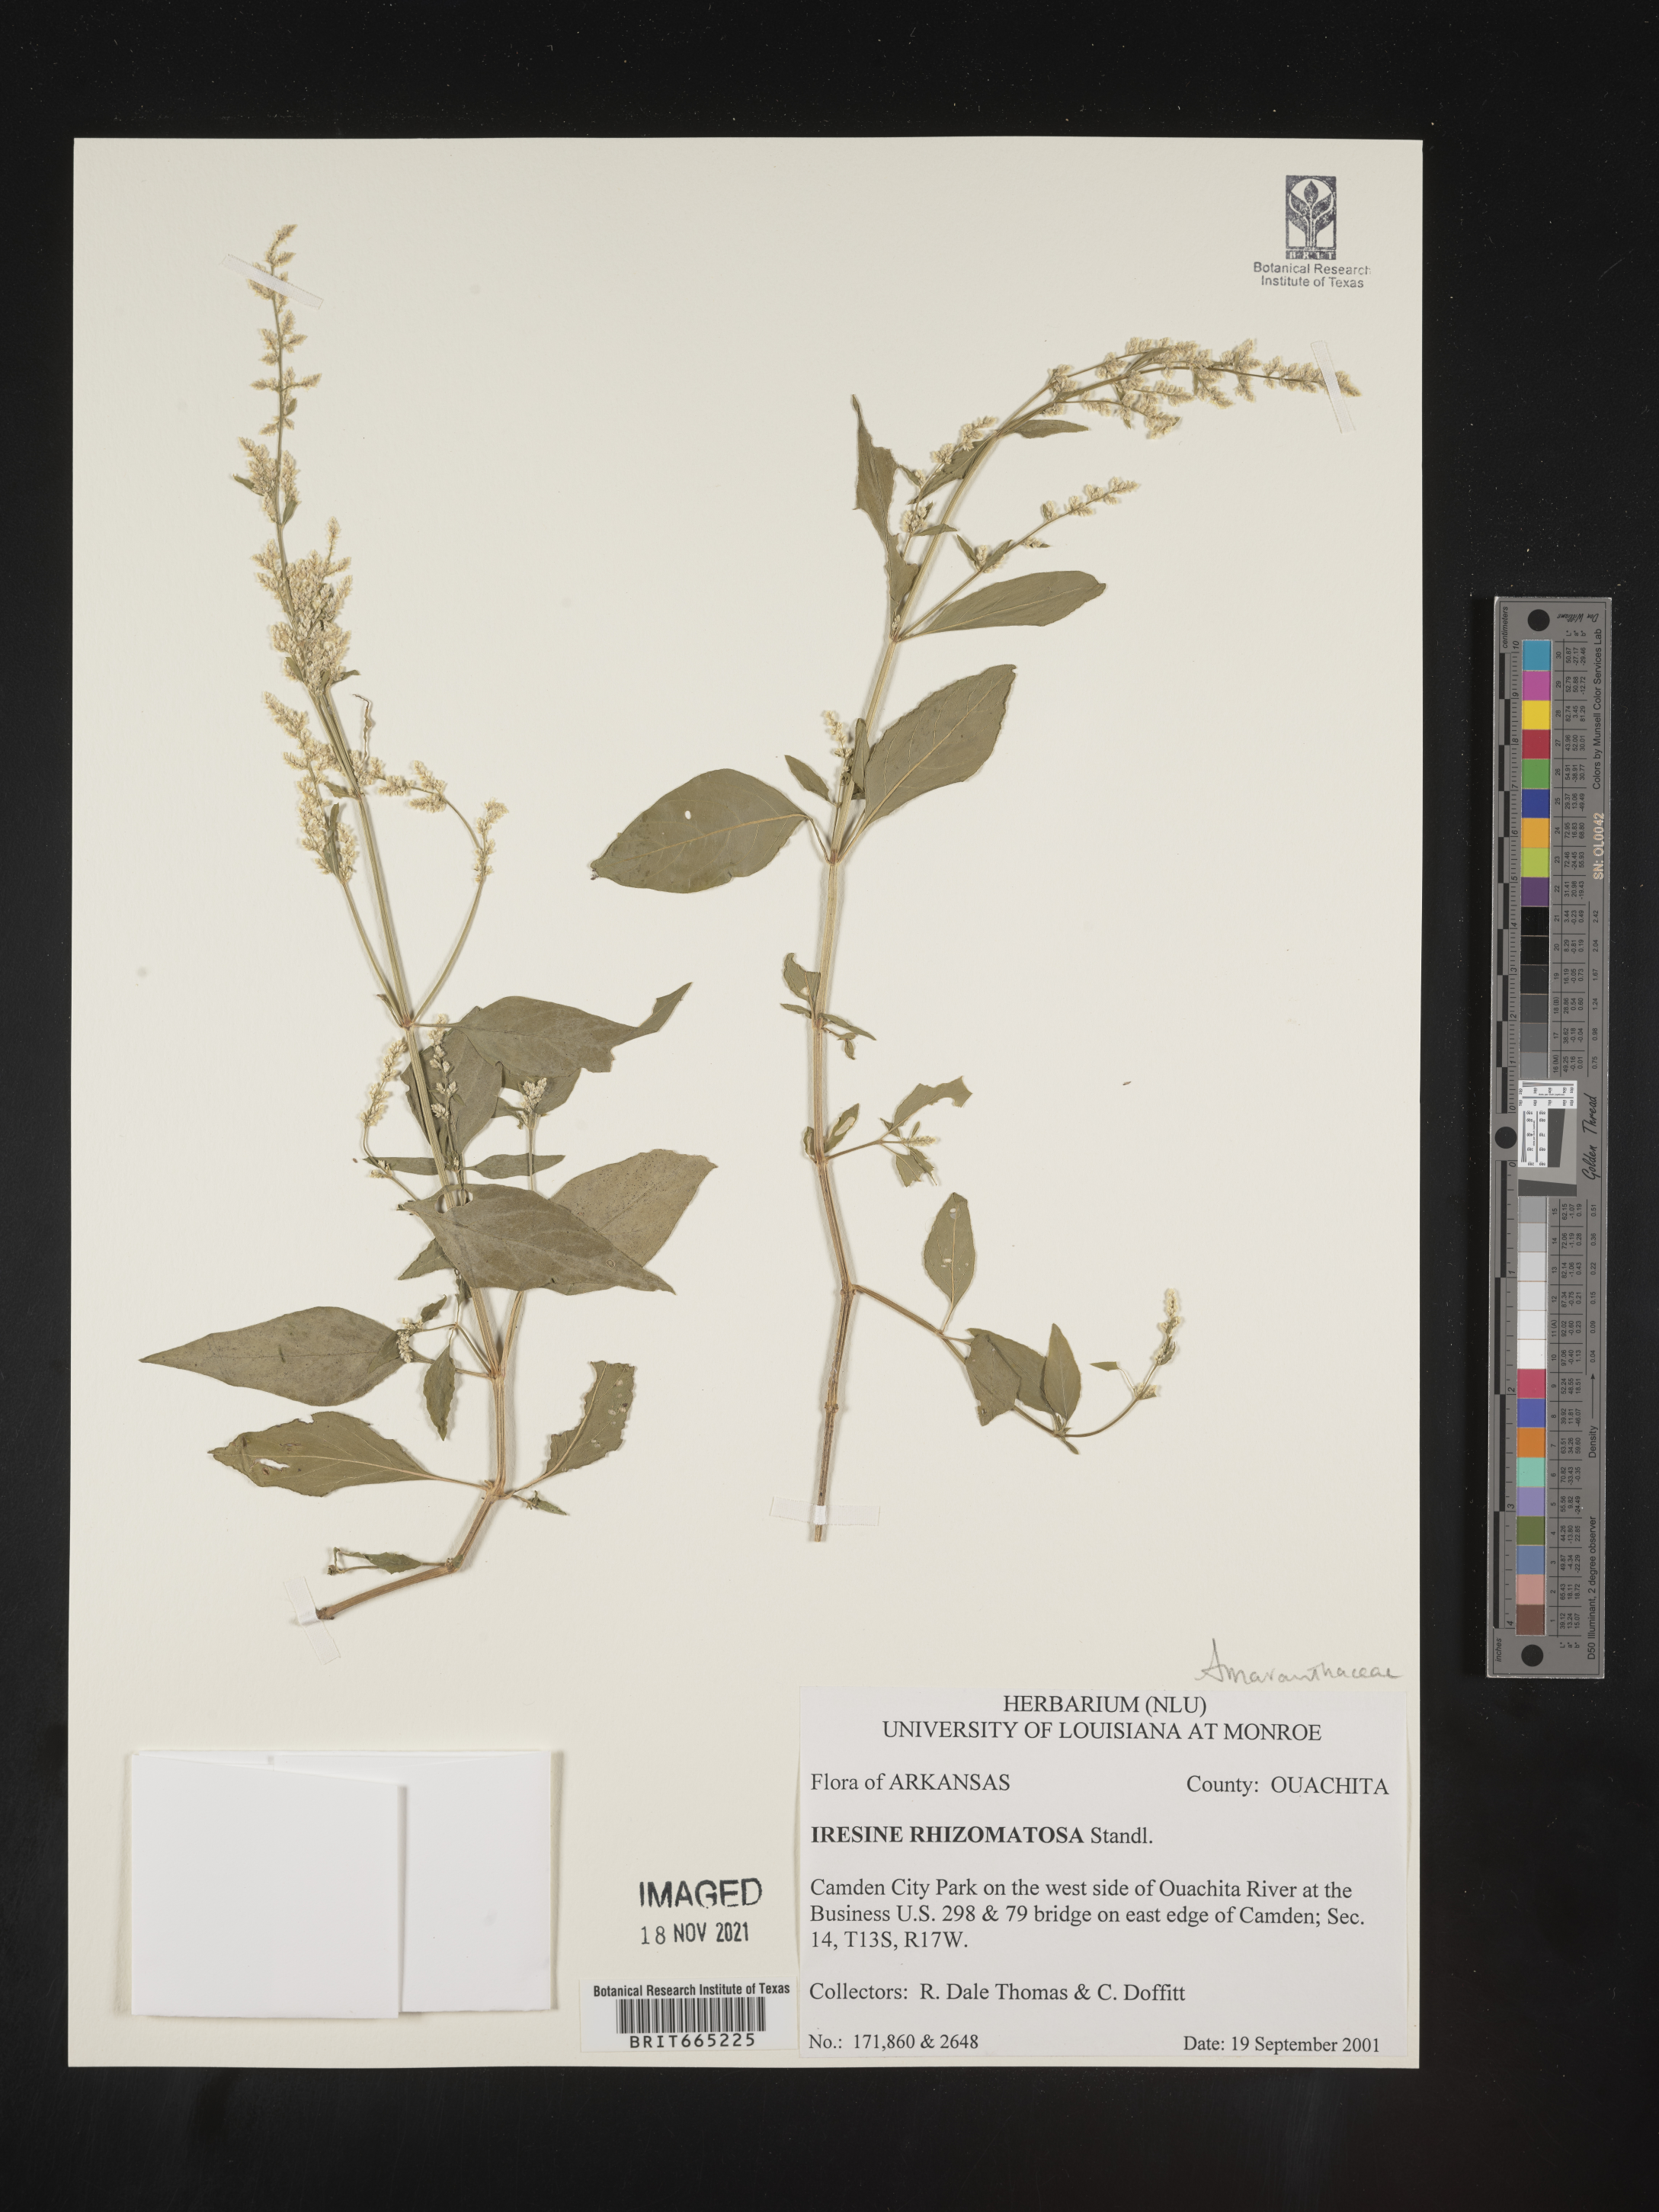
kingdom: Plantae
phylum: Tracheophyta
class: Magnoliopsida
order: Caryophyllales
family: Amaranthaceae
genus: Iresine
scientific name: Iresine rhizomatosa
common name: Juda's-bush
